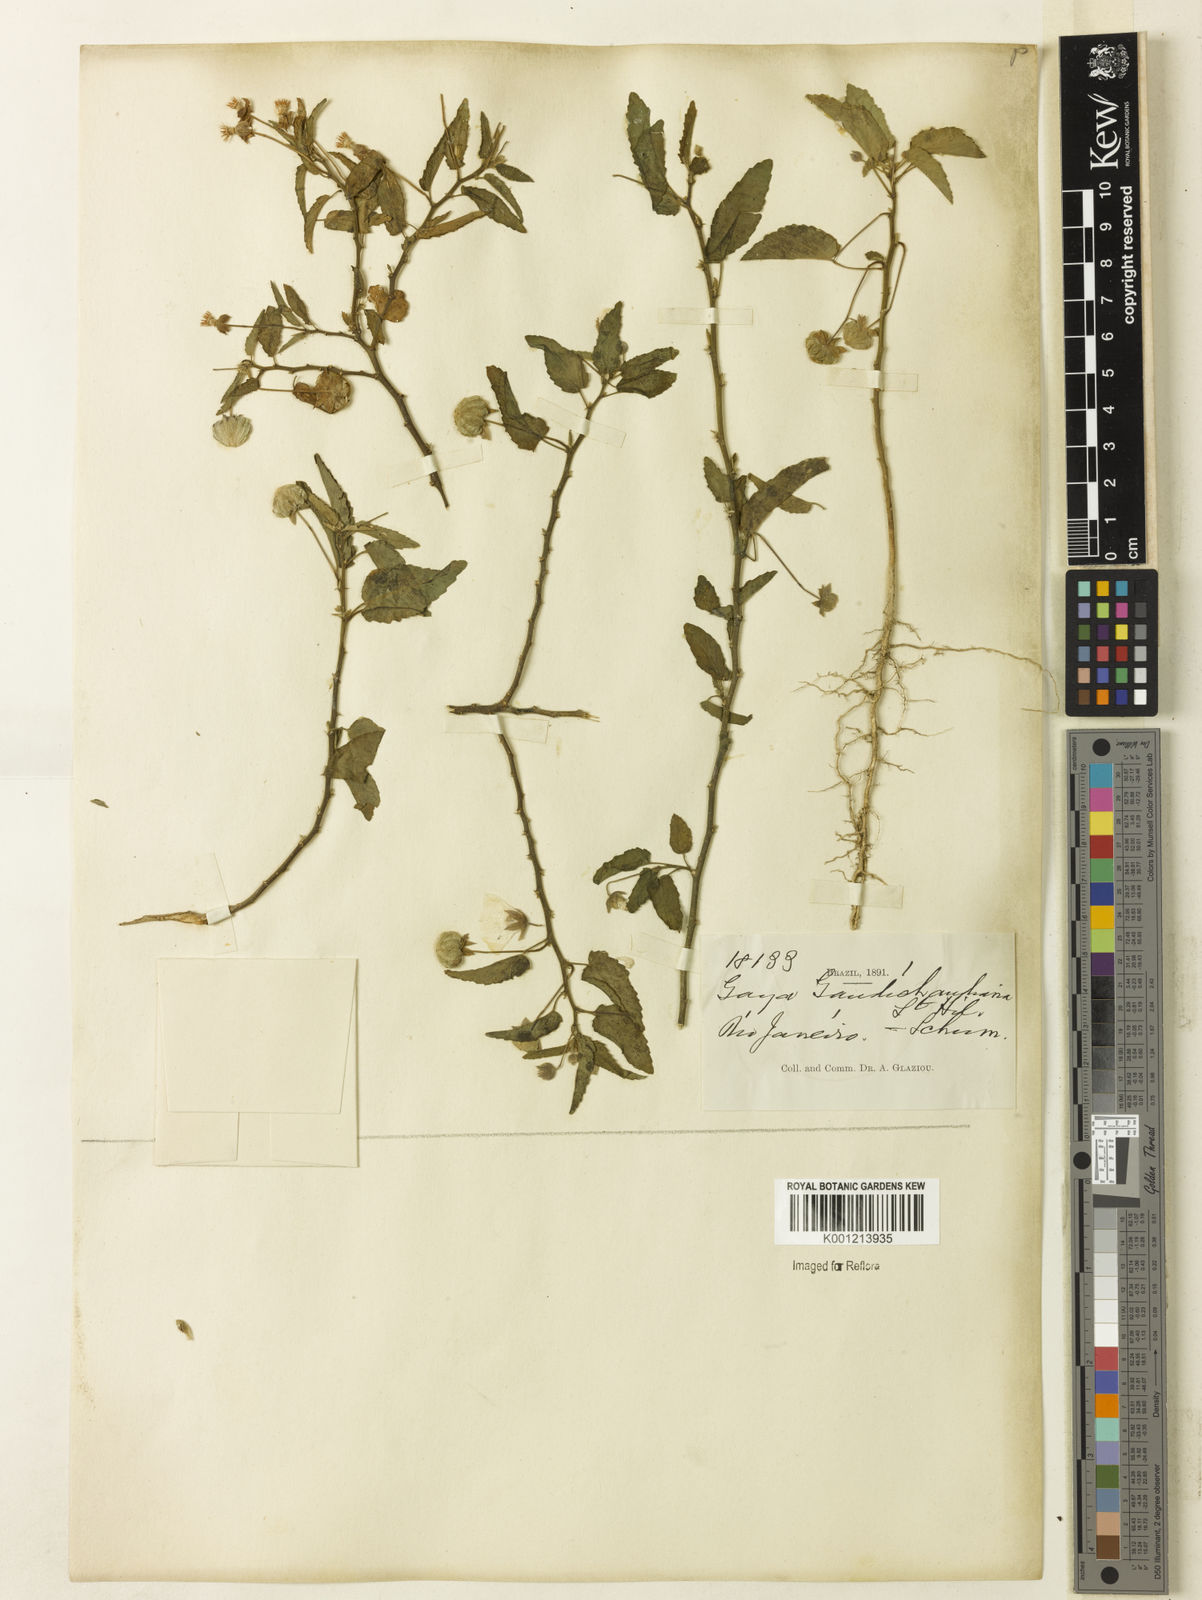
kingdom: Plantae
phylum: Tracheophyta
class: Magnoliopsida
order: Malvales
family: Malvaceae
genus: Gaya
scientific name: Gaya gaudichaudiana
